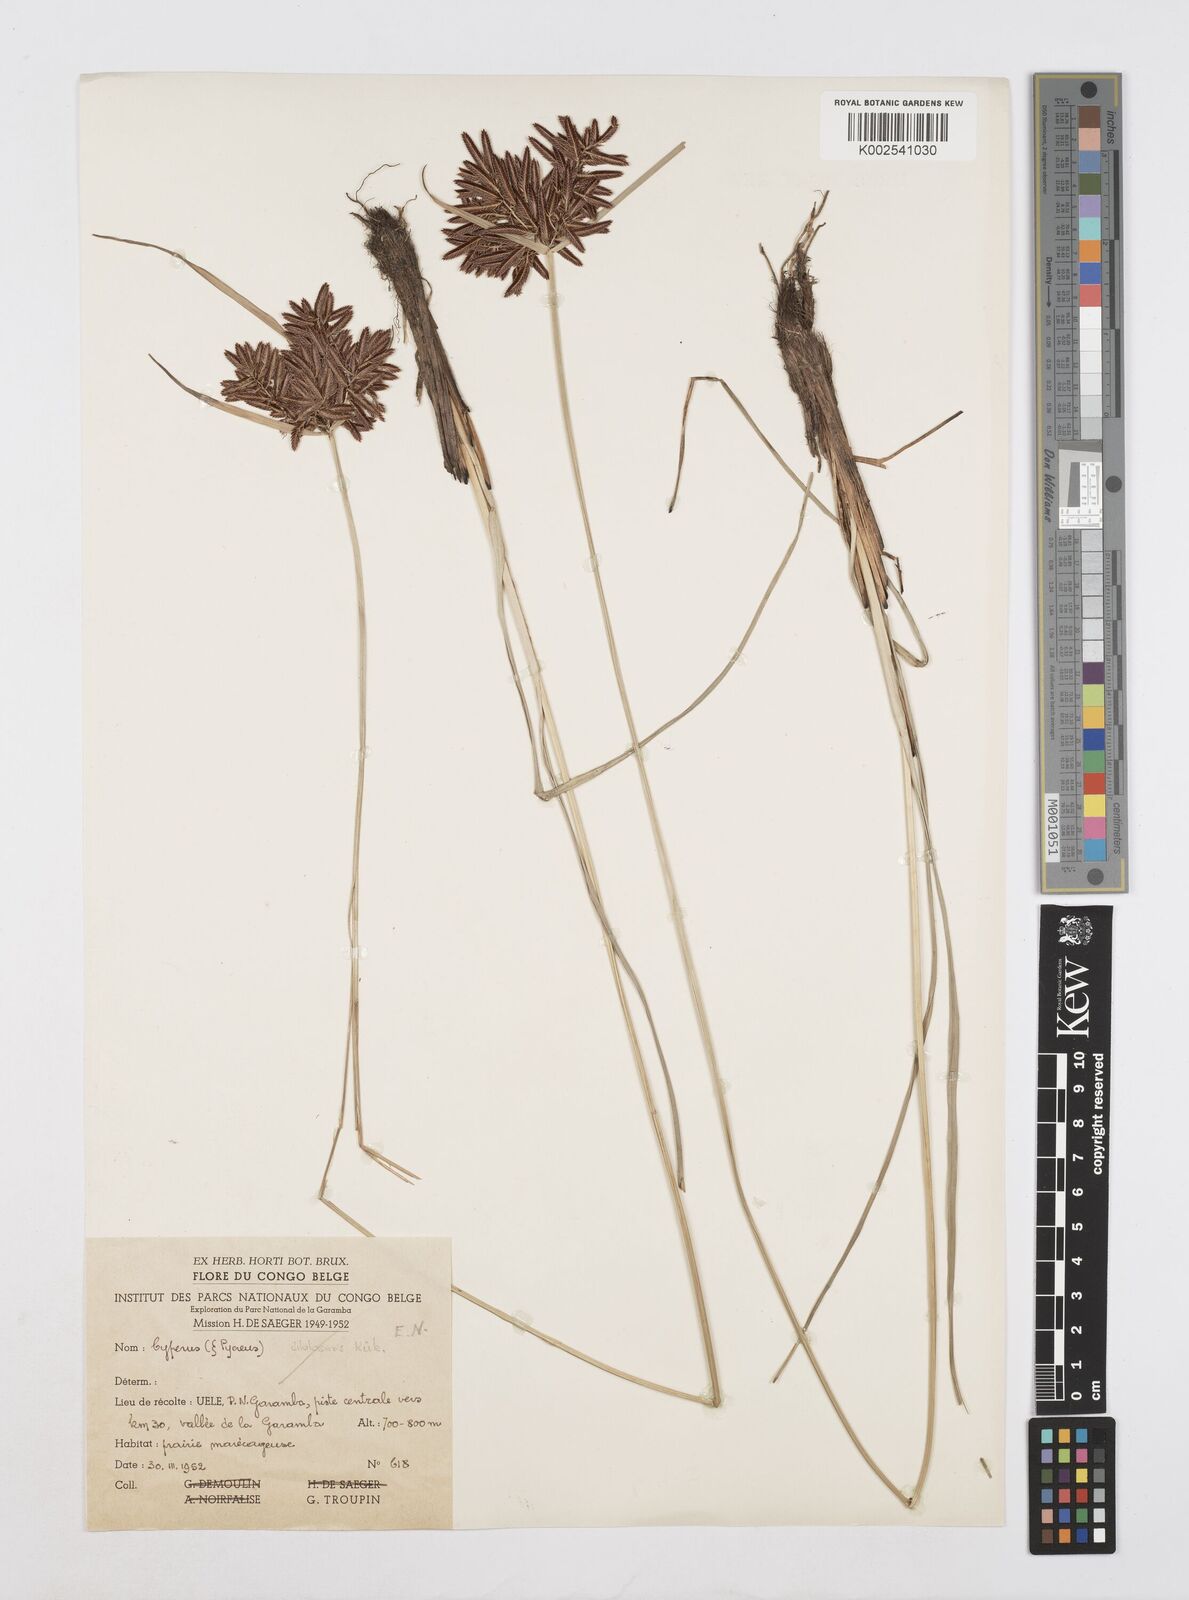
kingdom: Plantae
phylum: Tracheophyta
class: Liliopsida
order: Poales
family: Cyperaceae
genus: Cyperus
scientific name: Cyperus
